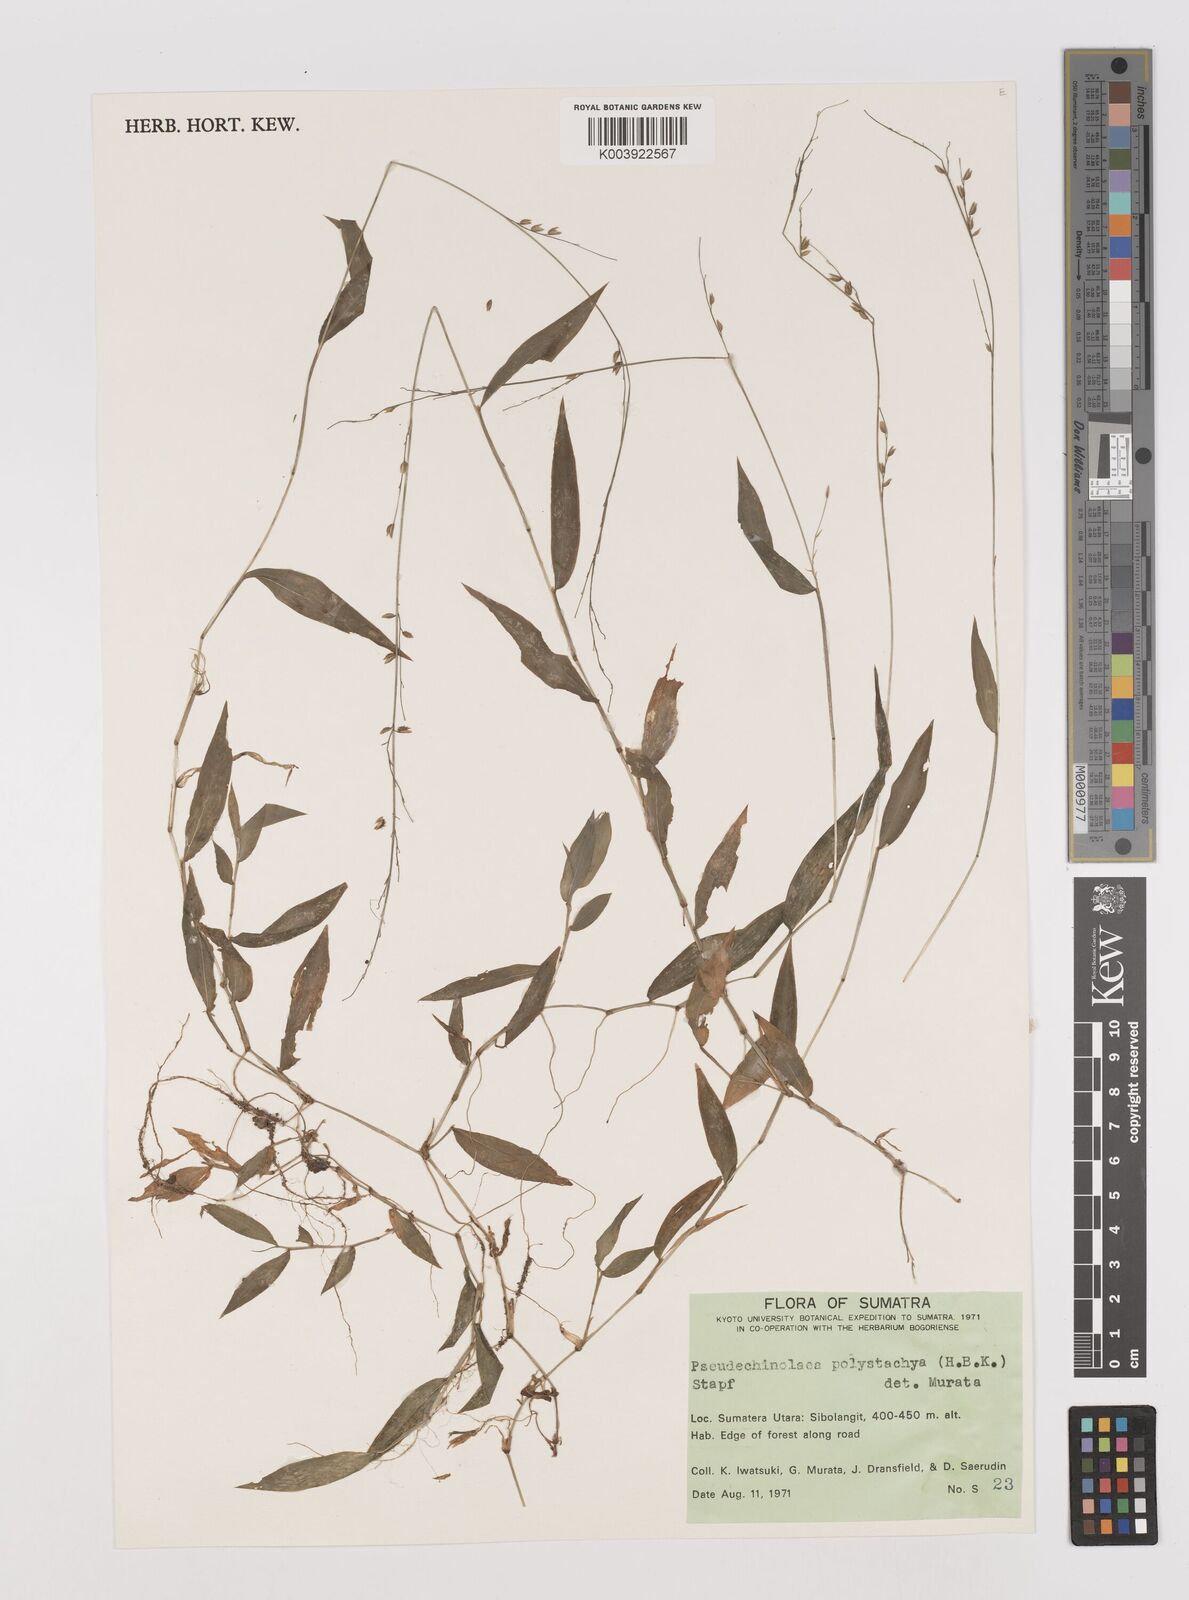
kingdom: Plantae
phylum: Tracheophyta
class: Liliopsida
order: Poales
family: Poaceae
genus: Pseudechinolaena
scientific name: Pseudechinolaena polystachya
